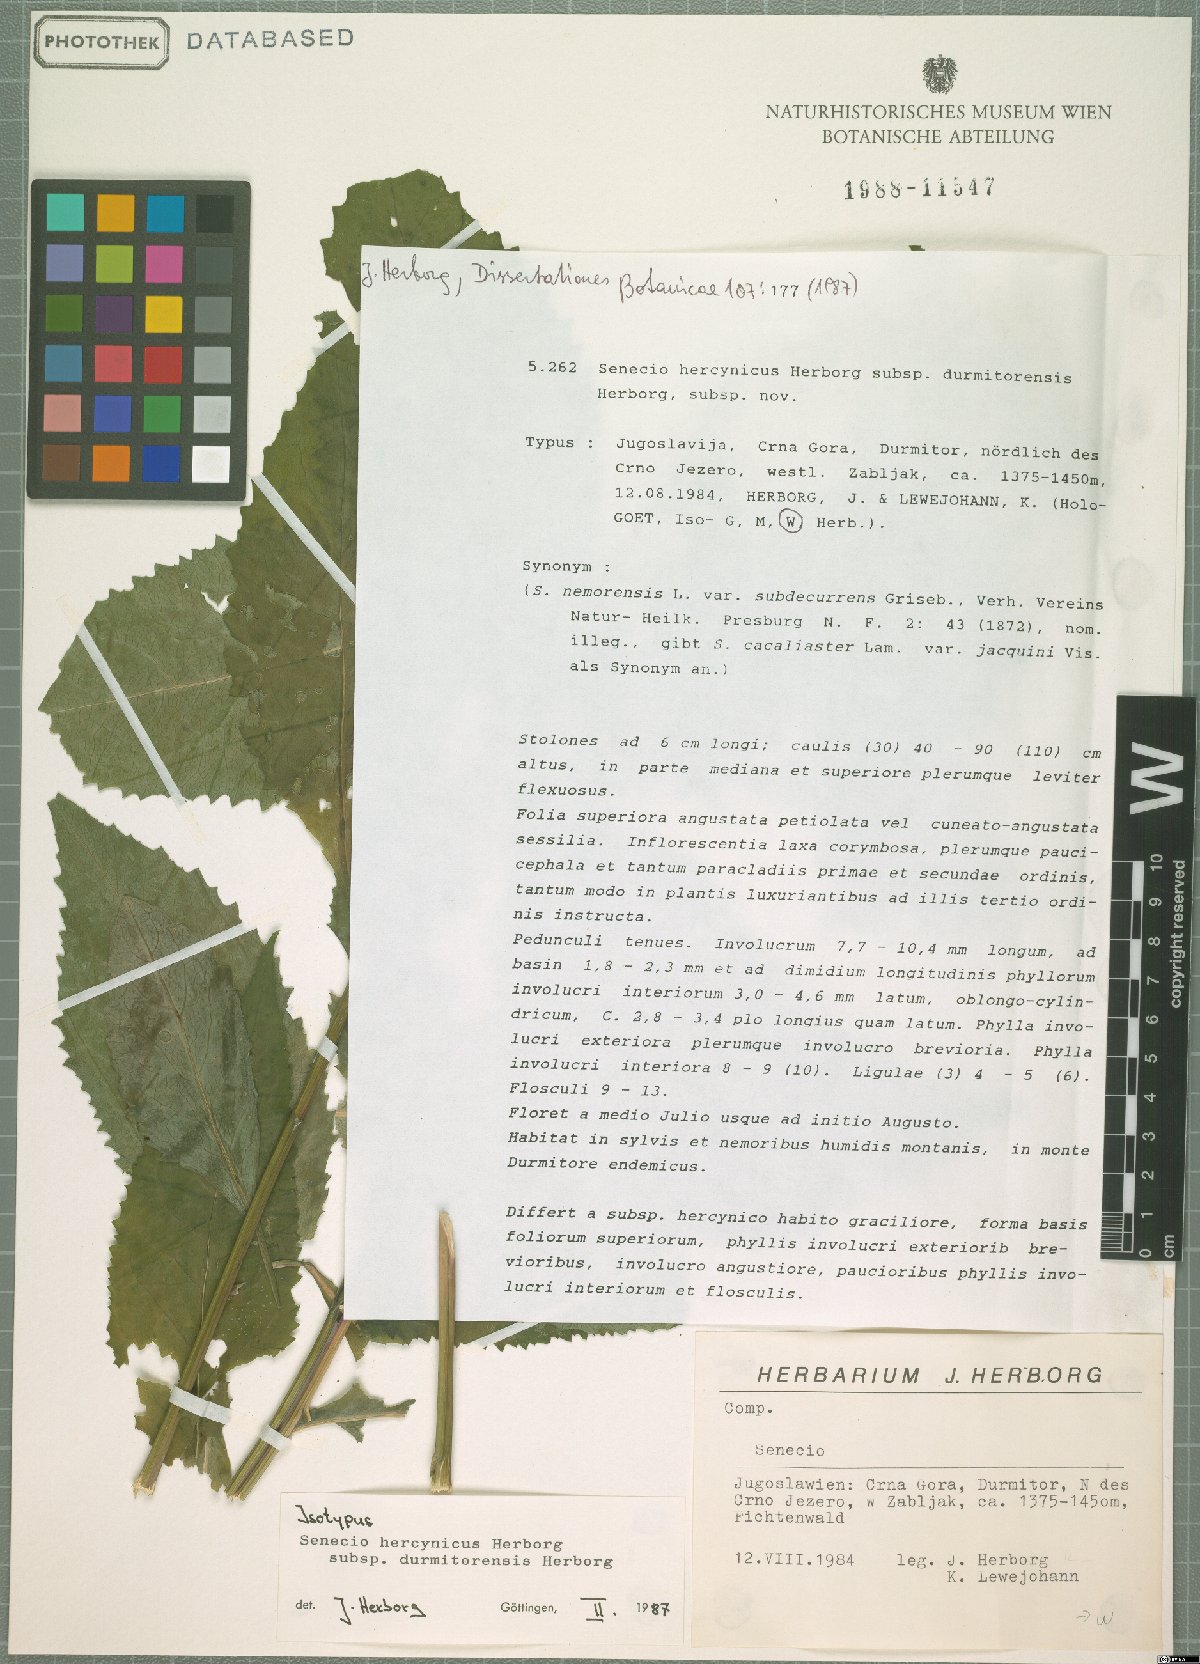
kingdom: Plantae
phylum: Tracheophyta
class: Magnoliopsida
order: Asterales
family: Asteraceae
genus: Senecio
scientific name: Senecio hercynicus
